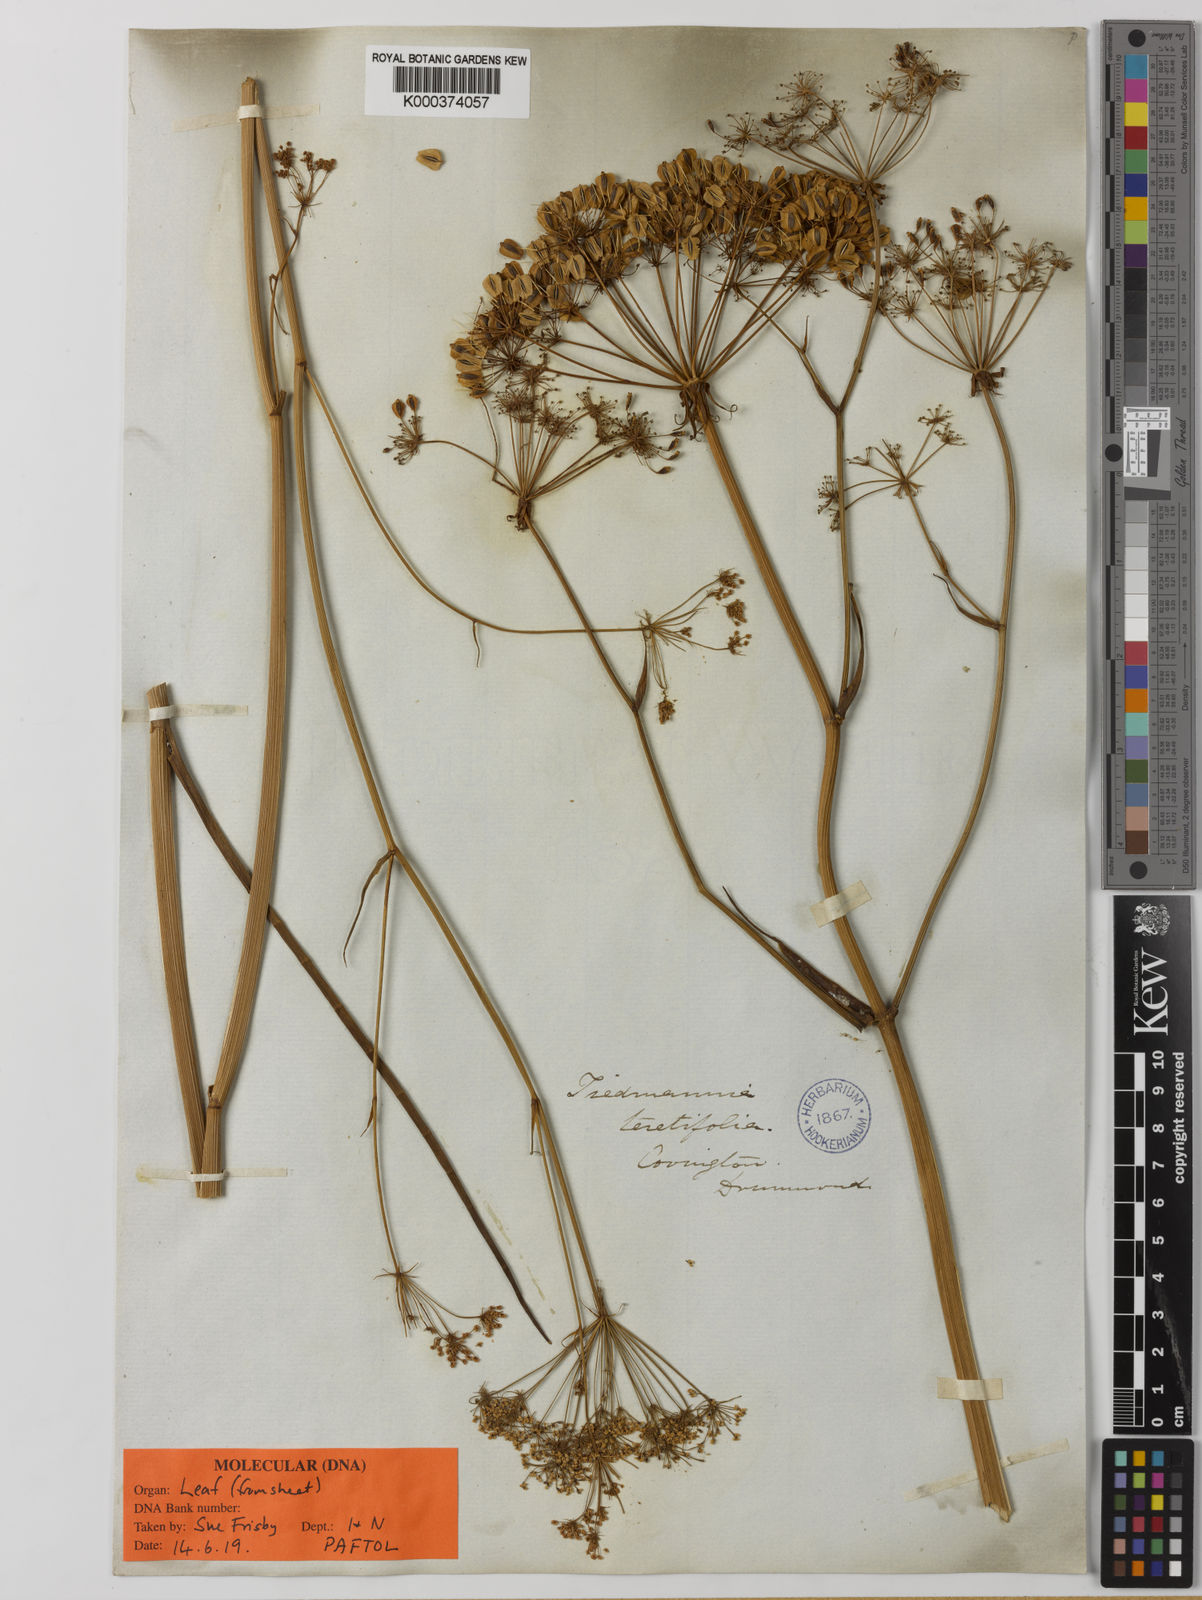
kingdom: Plantae
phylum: Tracheophyta
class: Magnoliopsida
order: Apiales
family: Apiaceae
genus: Tiedemannia
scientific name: Tiedemannia filiformis
